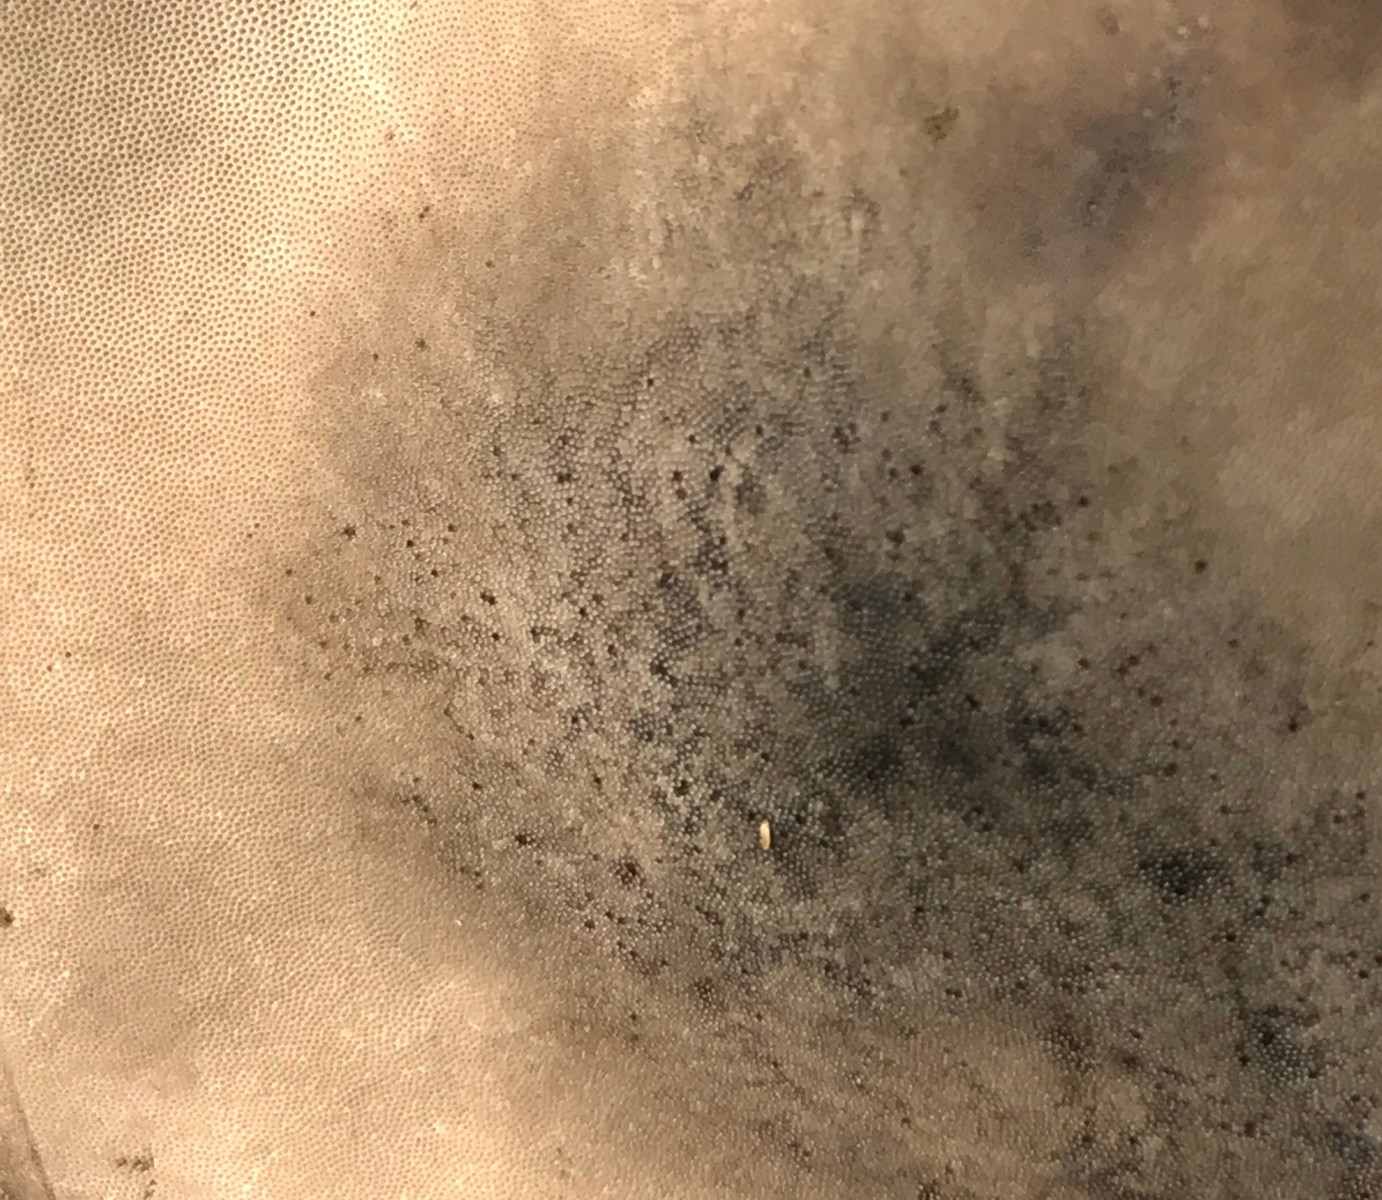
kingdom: Fungi
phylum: Basidiomycota
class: Agaricomycetes
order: Polyporales
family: Polyporaceae
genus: Fomes
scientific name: Fomes fomentarius
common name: tøndersvamp
